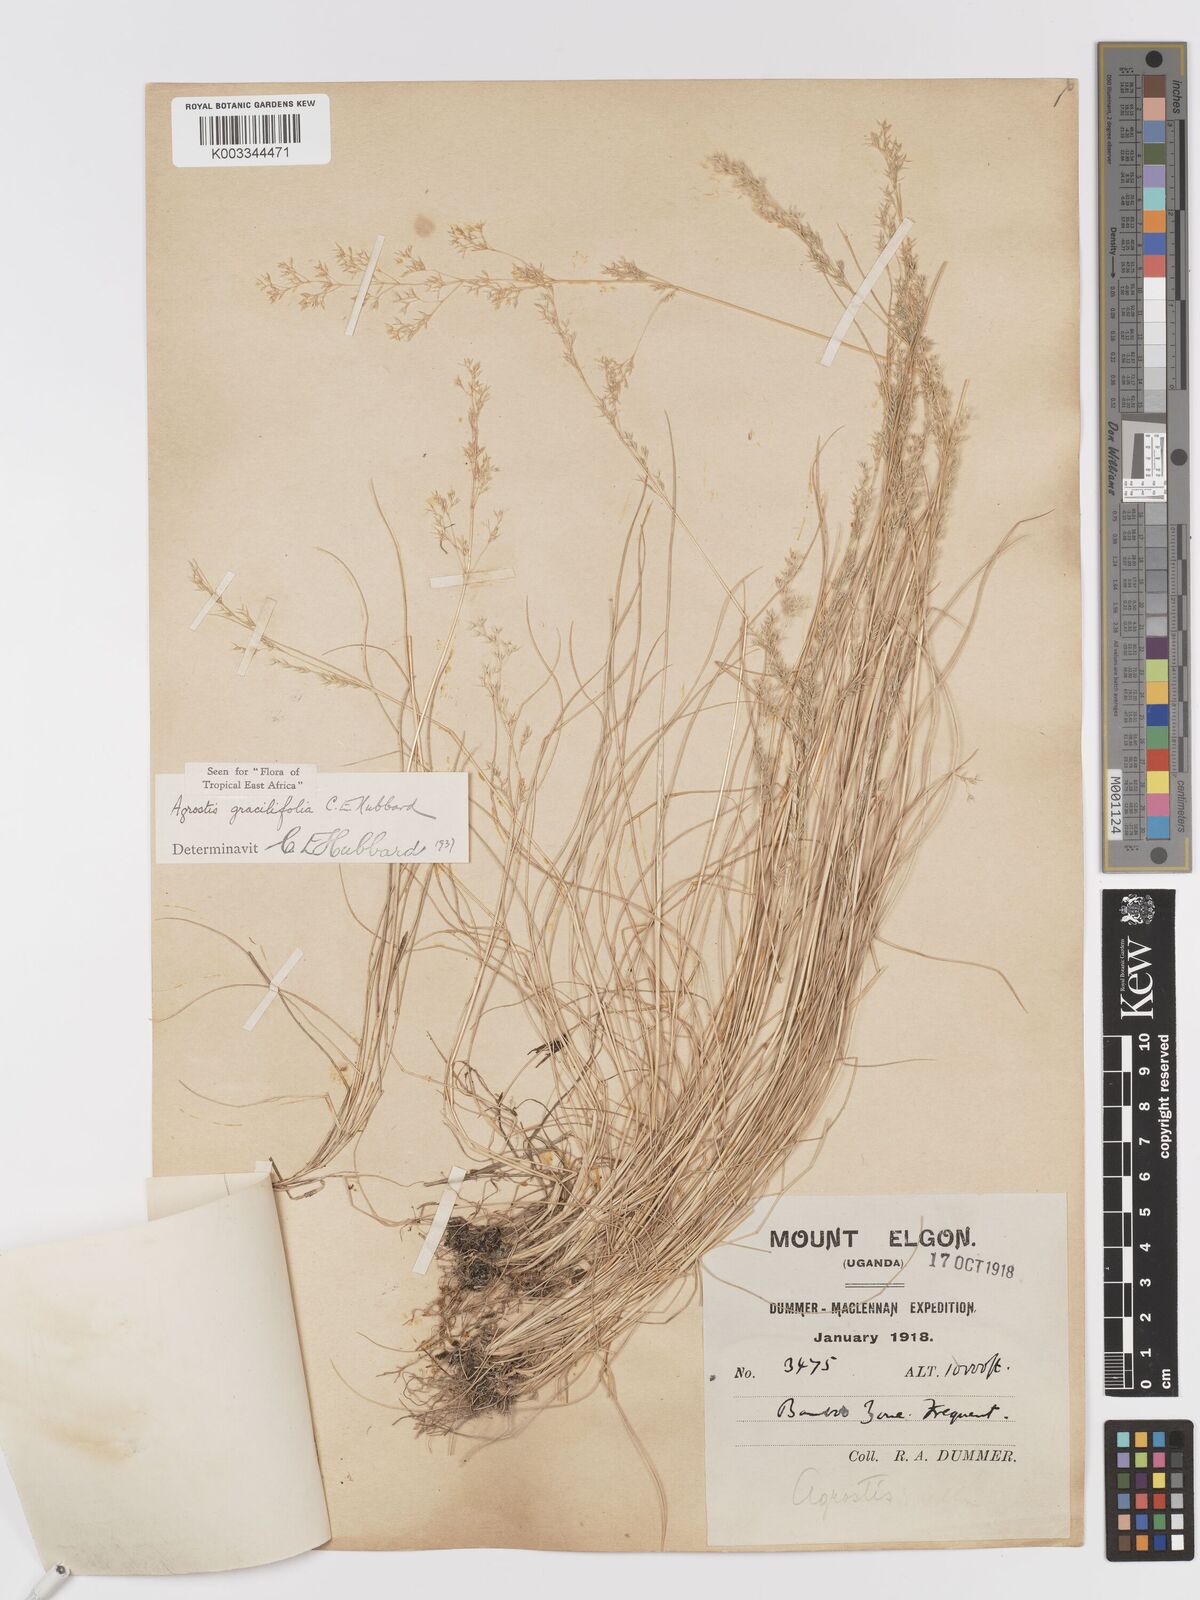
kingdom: Plantae
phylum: Tracheophyta
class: Liliopsida
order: Poales
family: Poaceae
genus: Agrostis
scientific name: Agrostis gracilifolia
